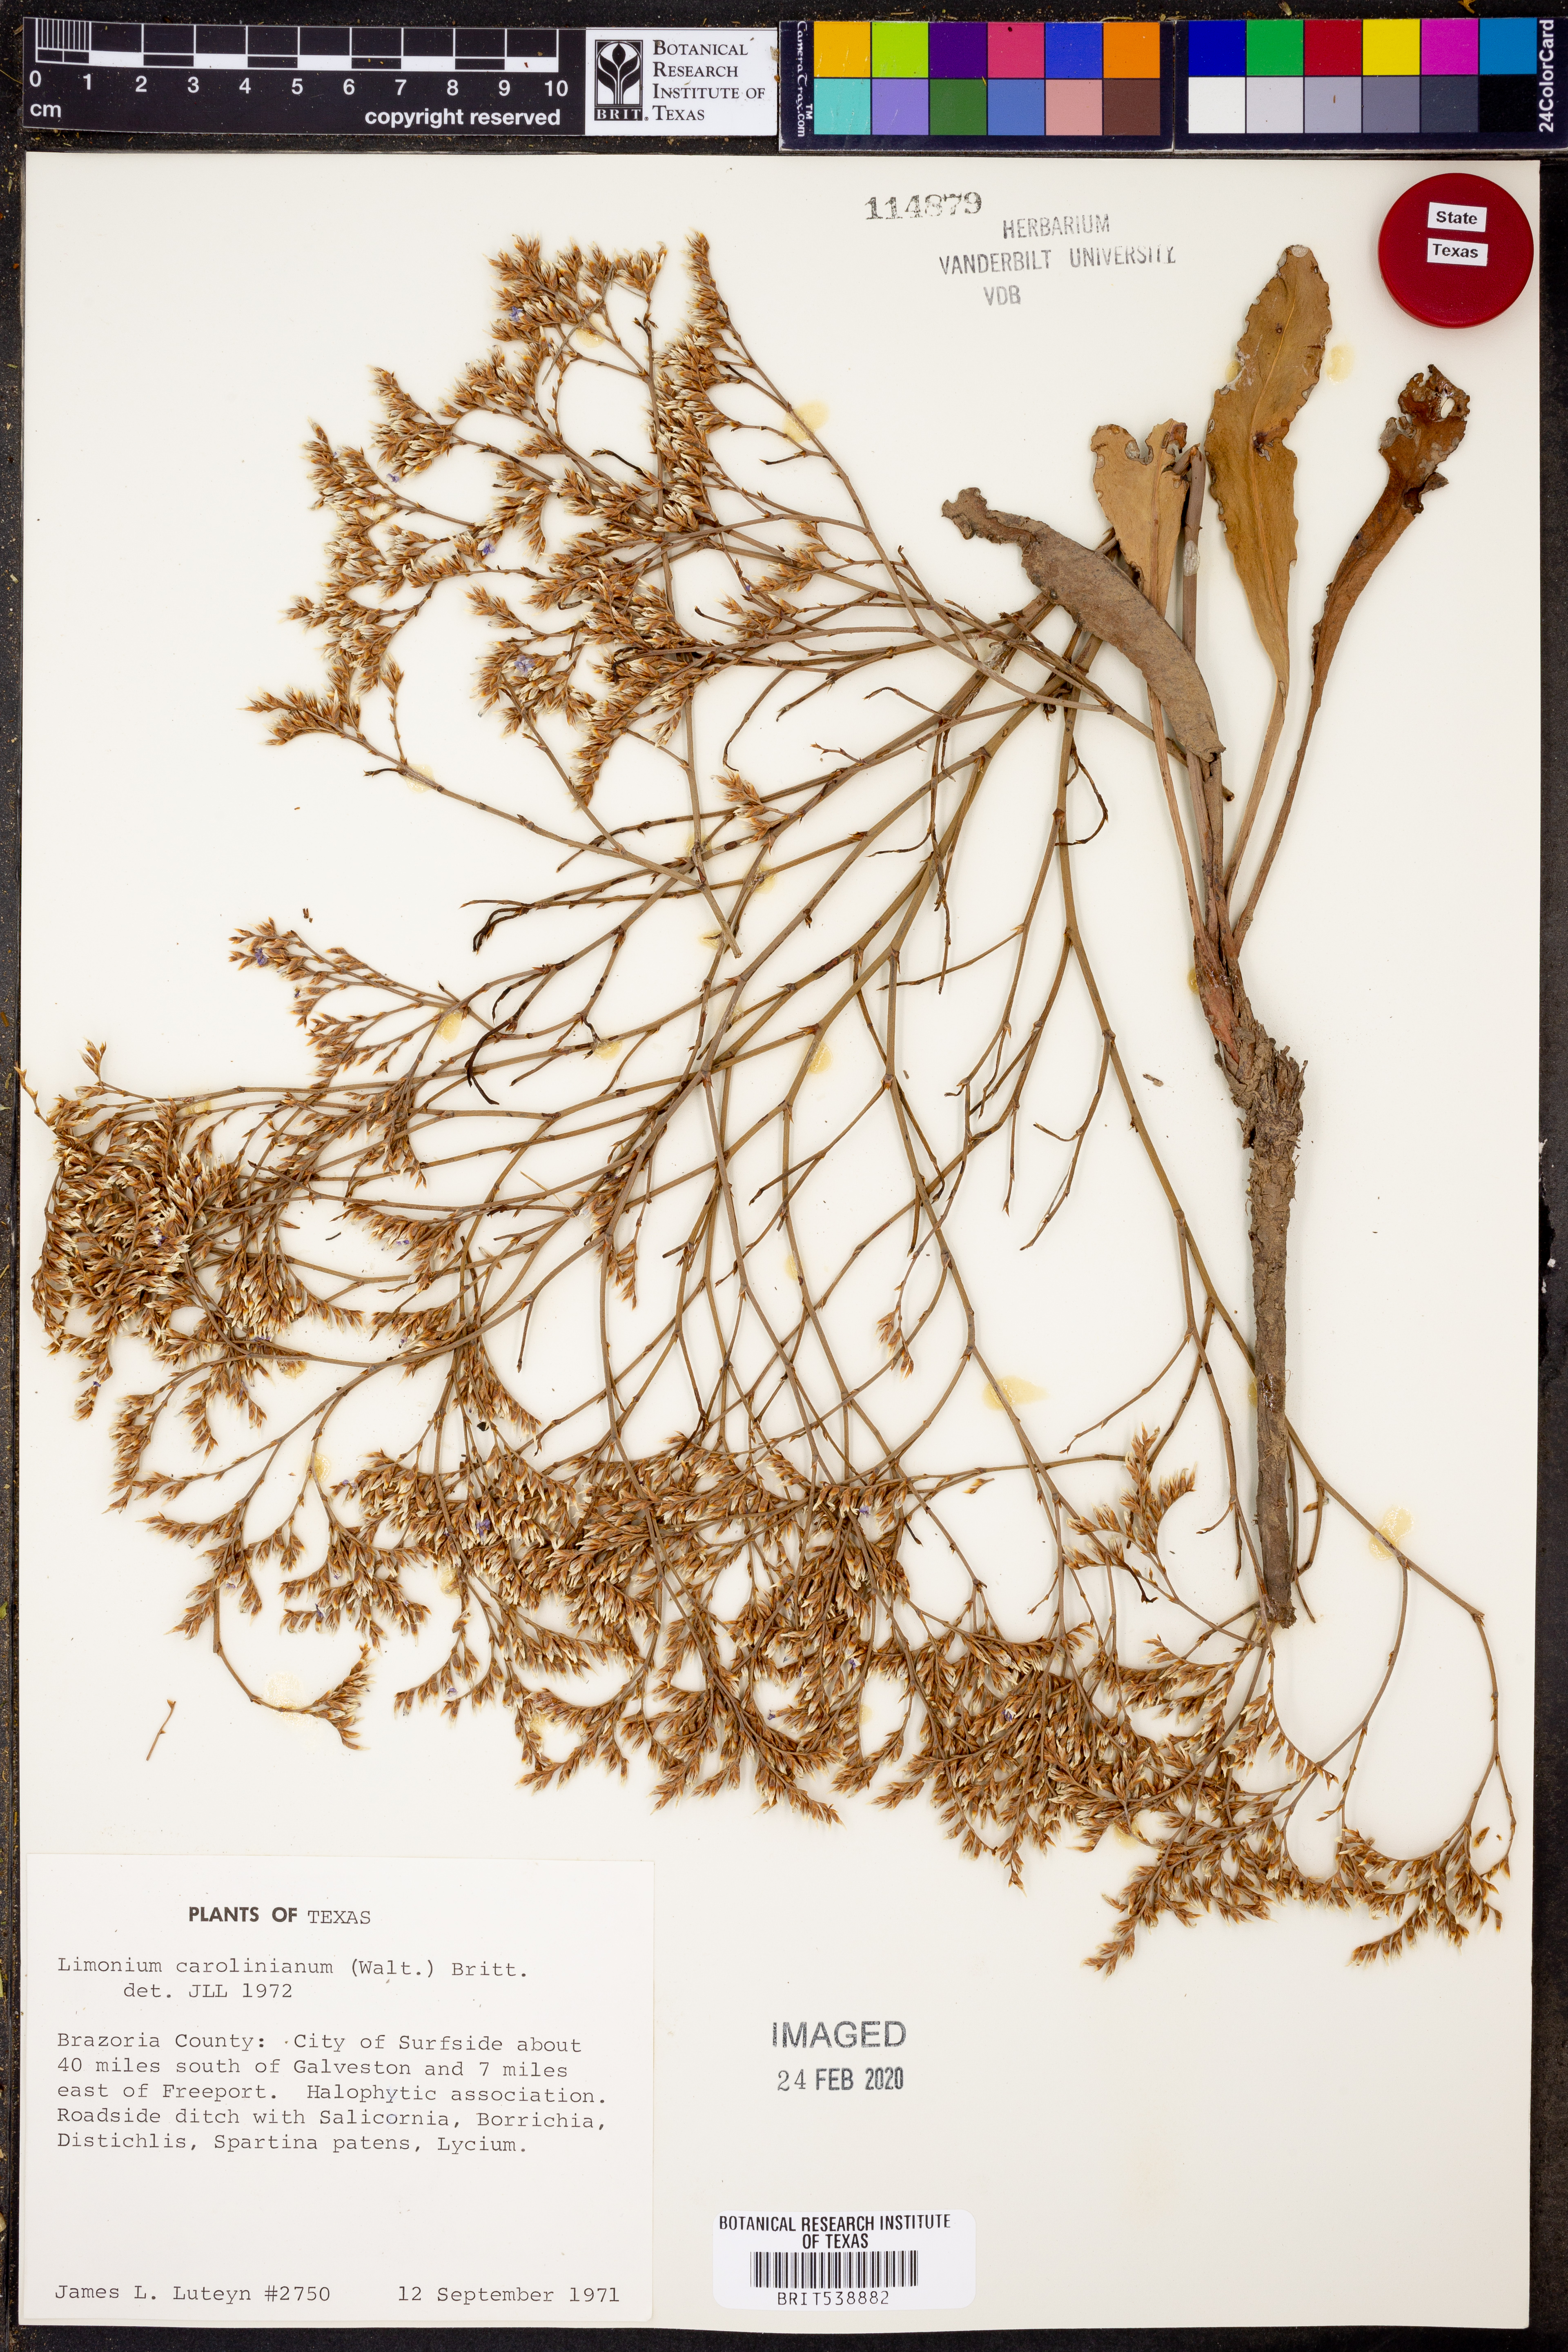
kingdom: Plantae
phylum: Tracheophyta
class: Magnoliopsida
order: Caryophyllales
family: Plumbaginaceae
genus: Limonium
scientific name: Limonium carolinianum
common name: Carolina sea lavender
